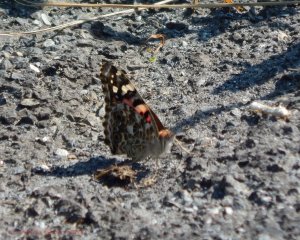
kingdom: Animalia
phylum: Arthropoda
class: Insecta
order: Lepidoptera
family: Nymphalidae
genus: Vanessa
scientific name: Vanessa cardui
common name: Painted Lady
